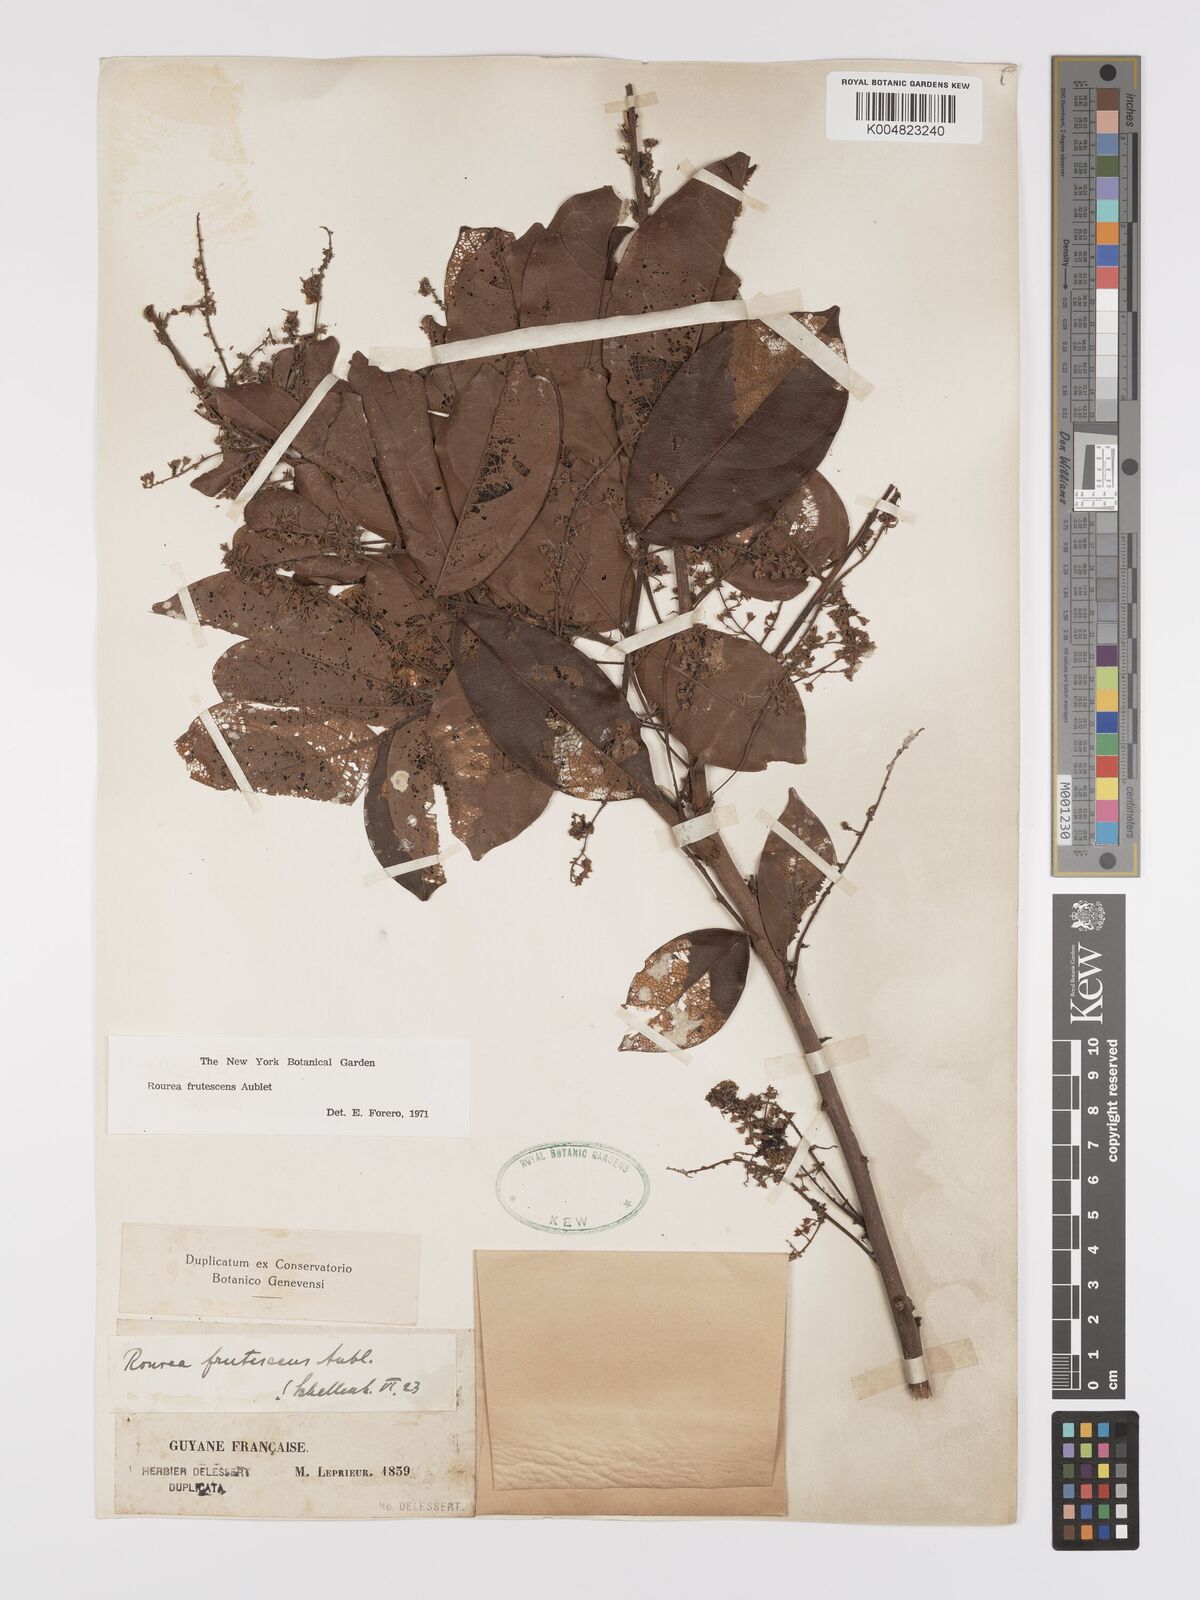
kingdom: Plantae
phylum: Tracheophyta
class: Magnoliopsida
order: Oxalidales
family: Connaraceae
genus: Rourea
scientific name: Rourea frutescens
